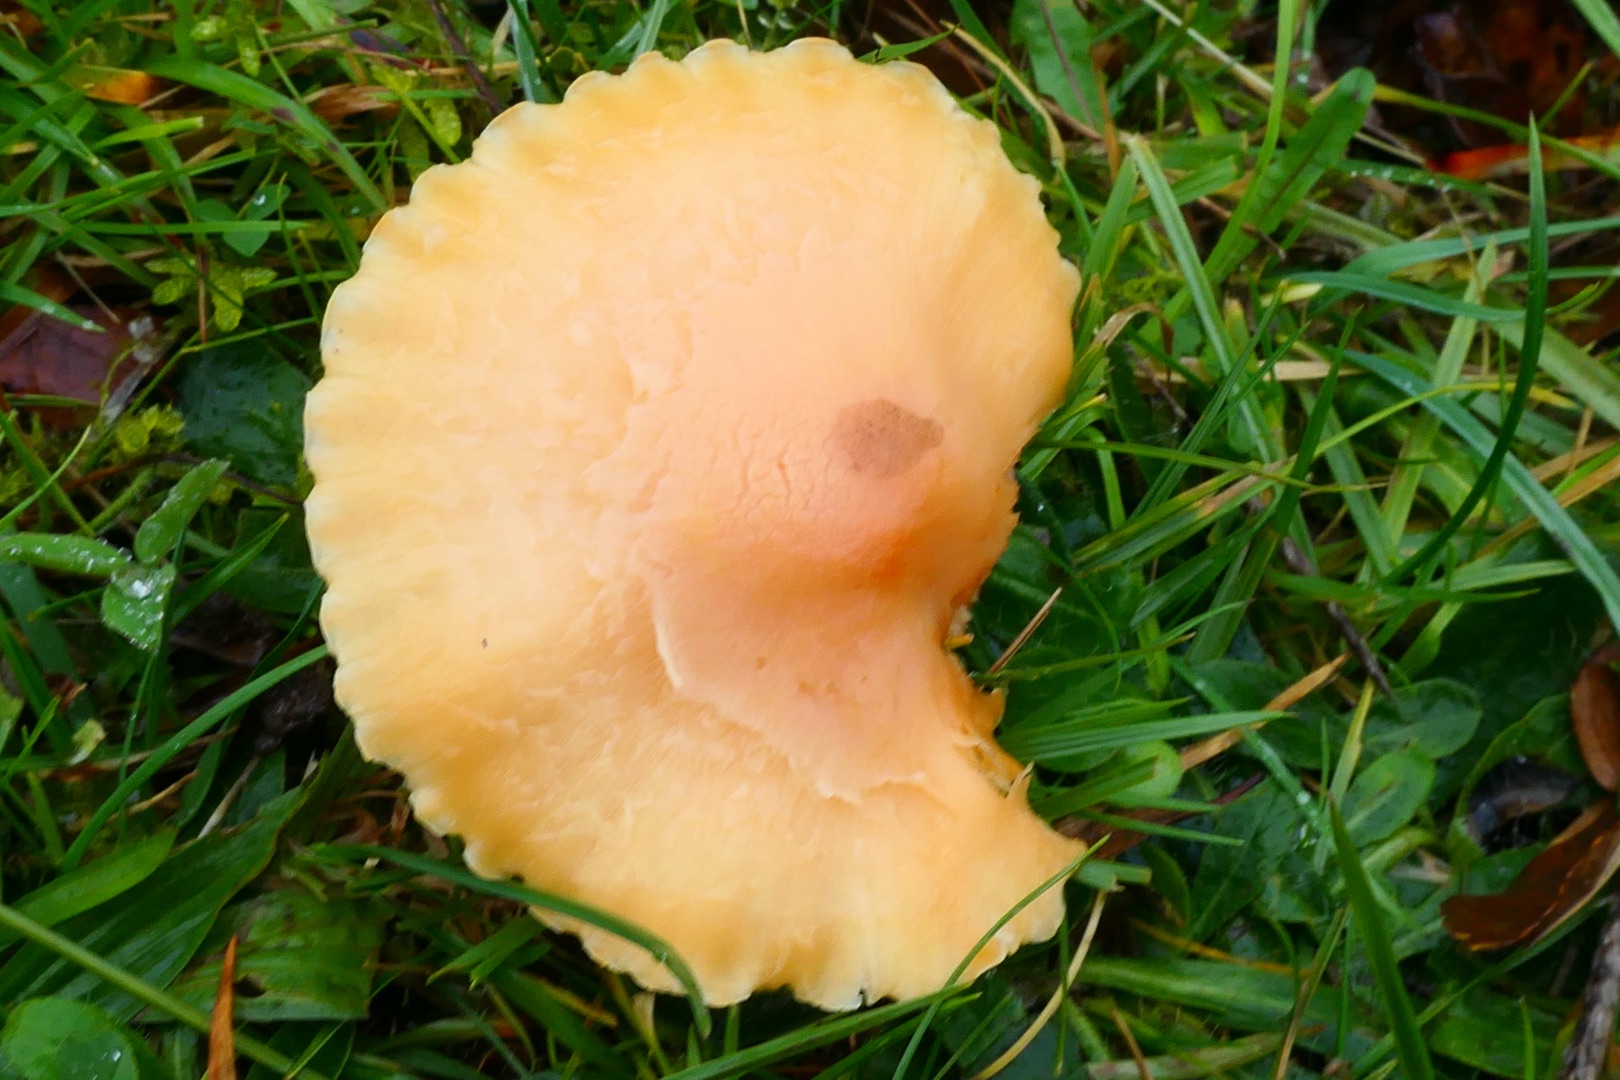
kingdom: Fungi
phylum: Basidiomycota
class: Agaricomycetes
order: Agaricales
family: Hygrophoraceae
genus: Cuphophyllus
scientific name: Cuphophyllus pratensis
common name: Eng-vokshat
